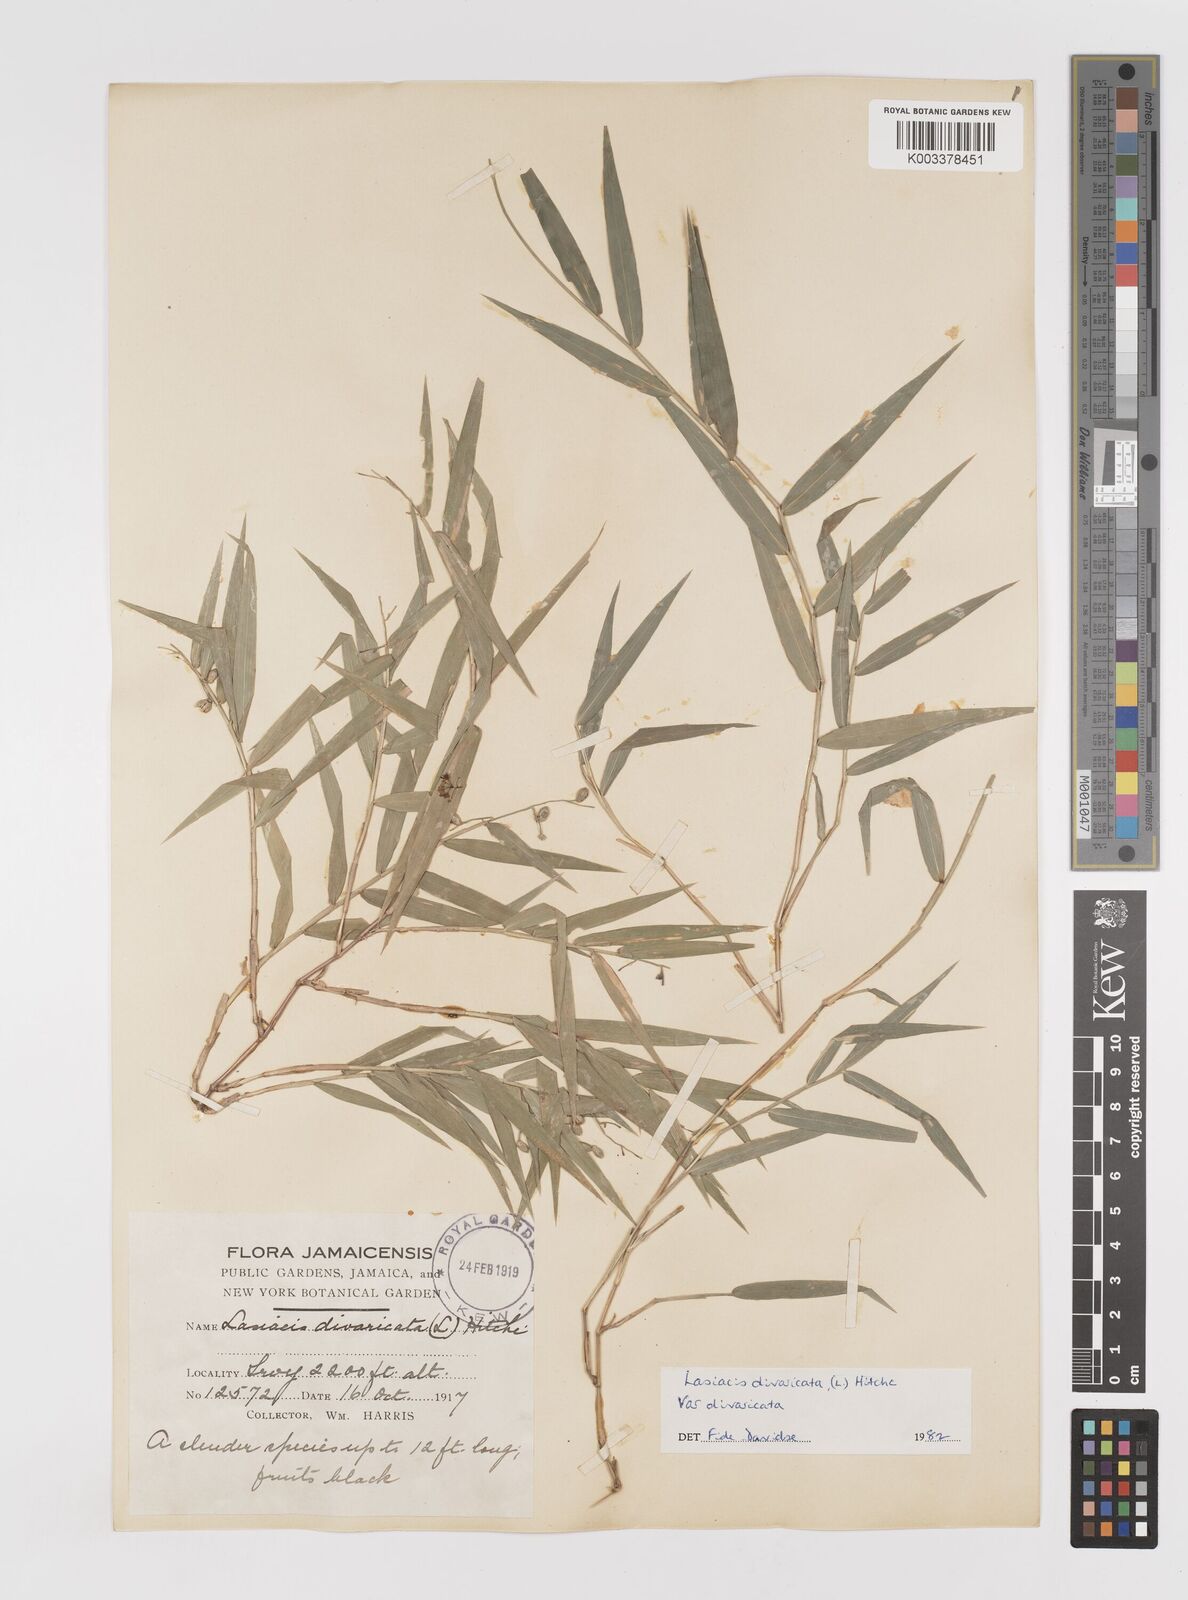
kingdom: Plantae
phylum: Tracheophyta
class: Liliopsida
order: Poales
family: Poaceae
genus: Lasiacis
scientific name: Lasiacis divaricata
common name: Smallcane
